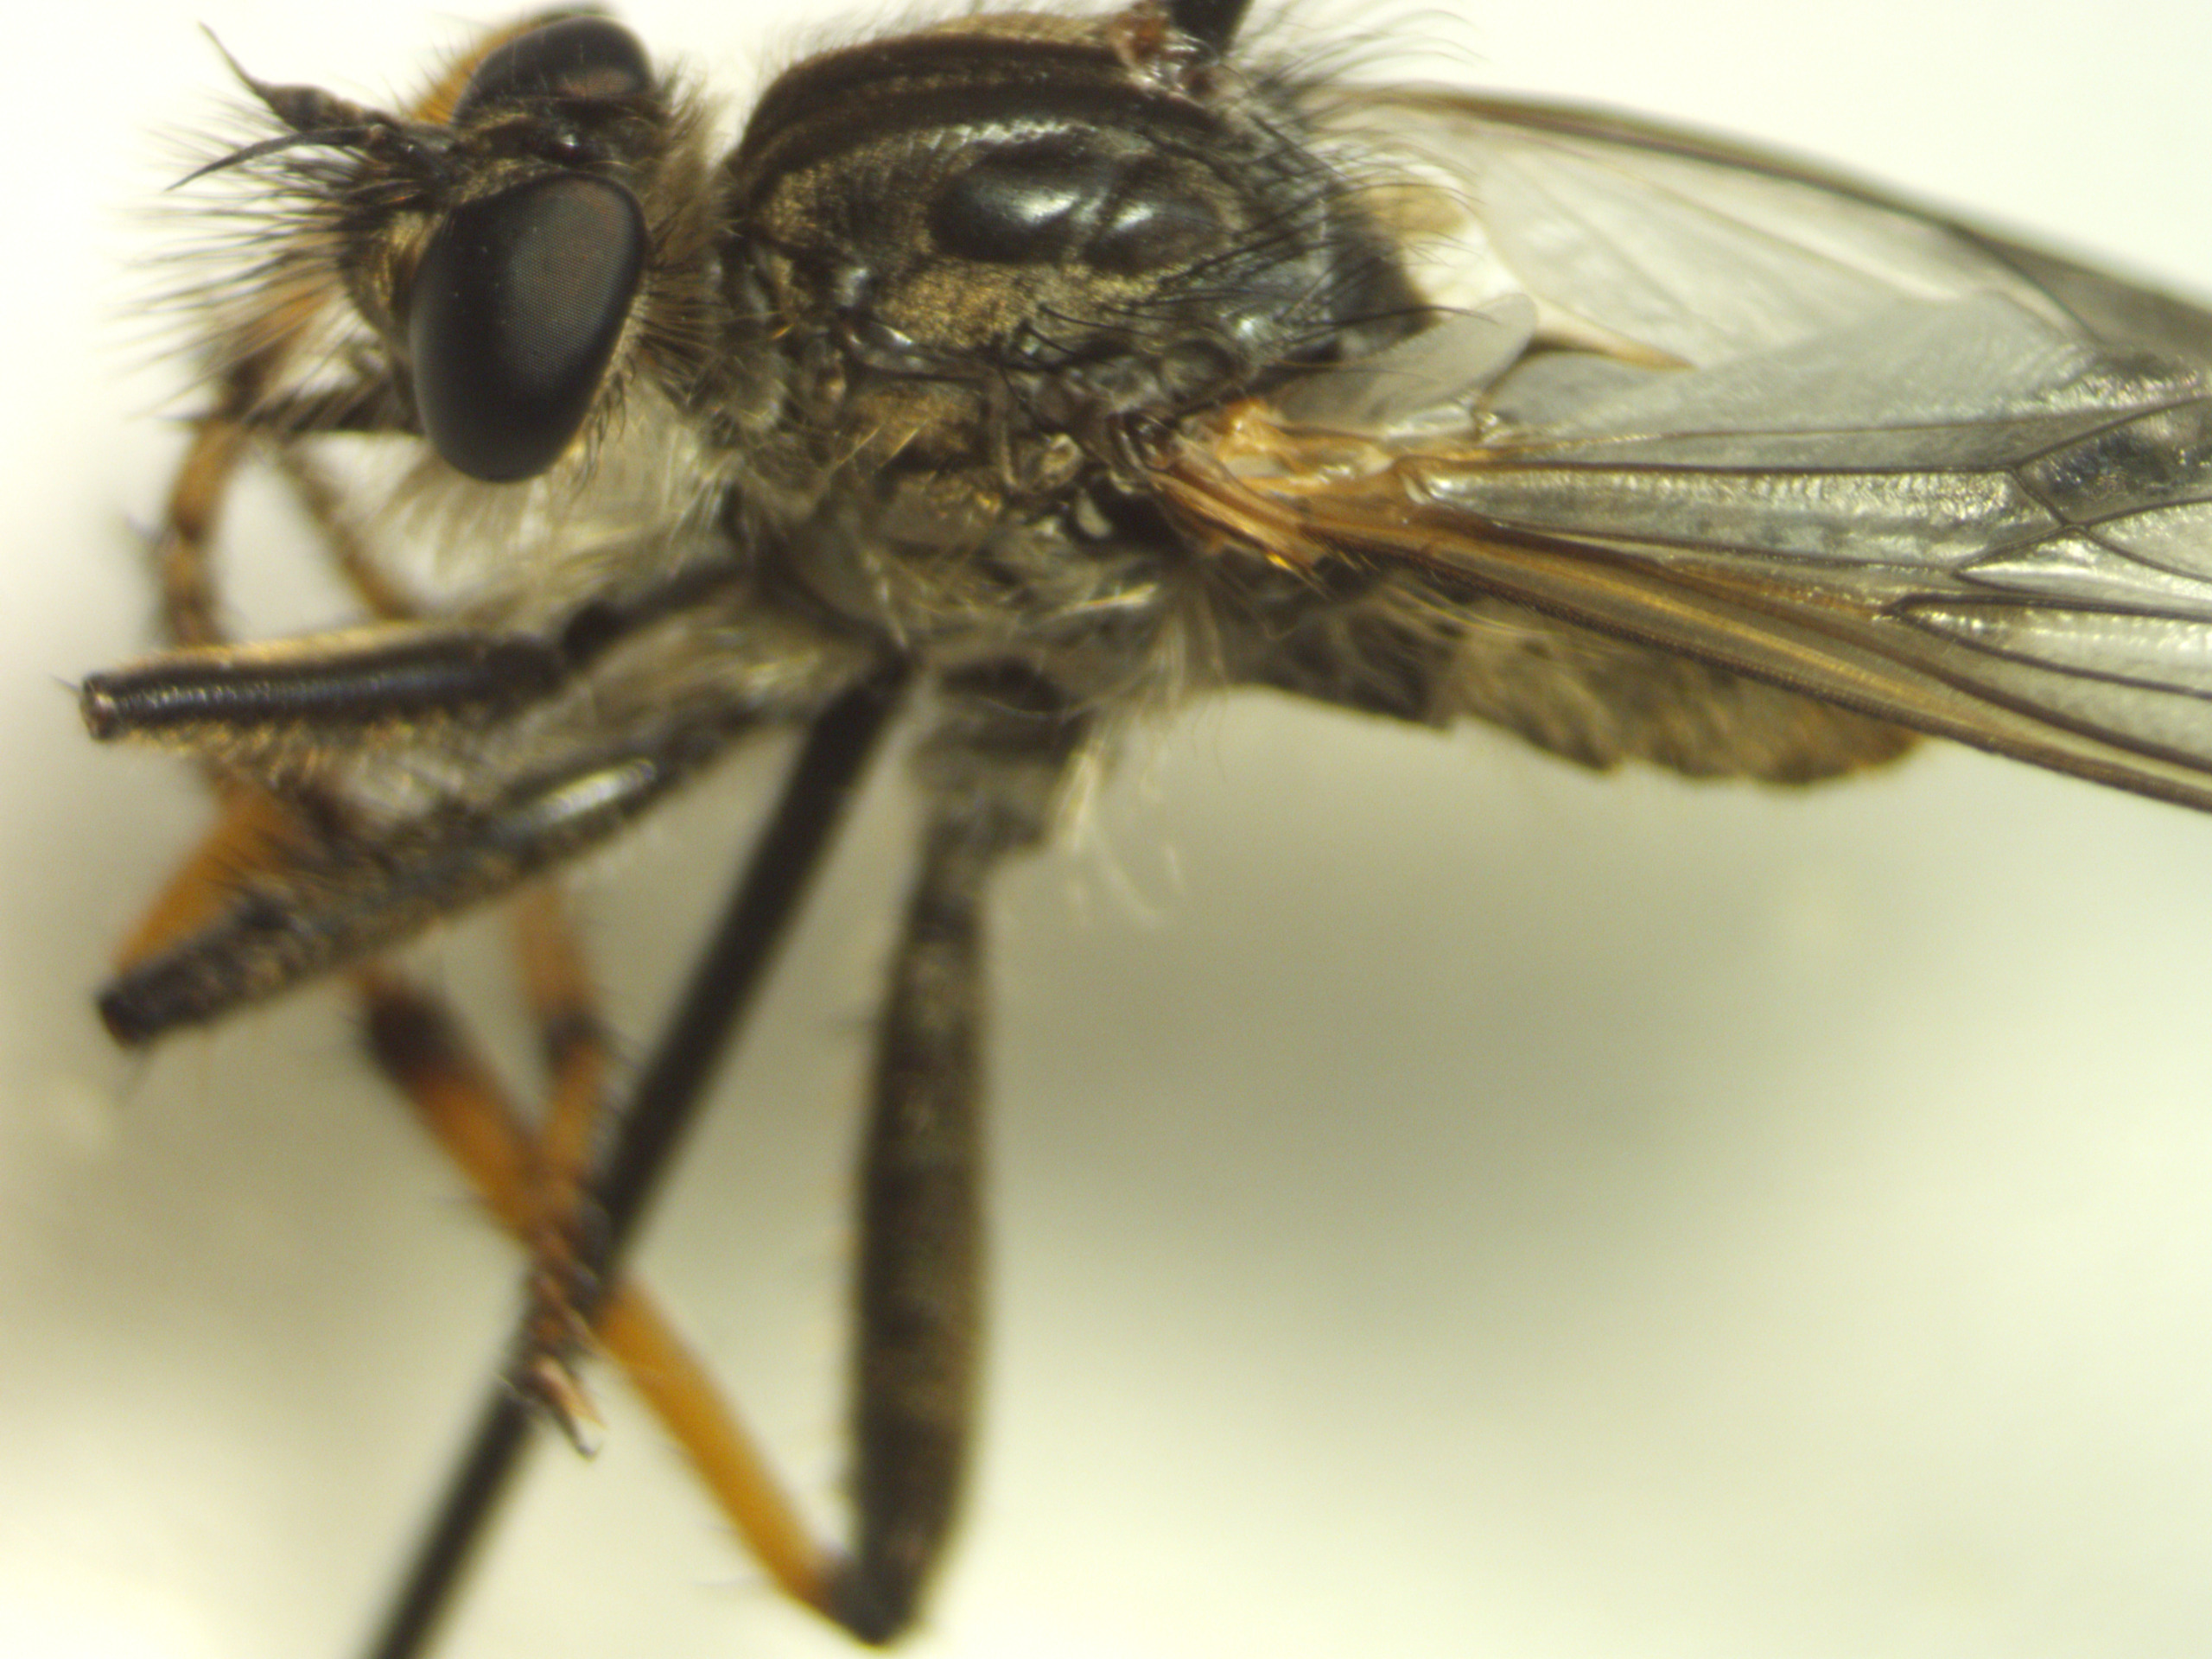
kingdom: Animalia
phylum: Arthropoda
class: Insecta
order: Diptera
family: Asilidae
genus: Pamponerus
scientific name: Pamponerus germanicus
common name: Tysk rovflue
